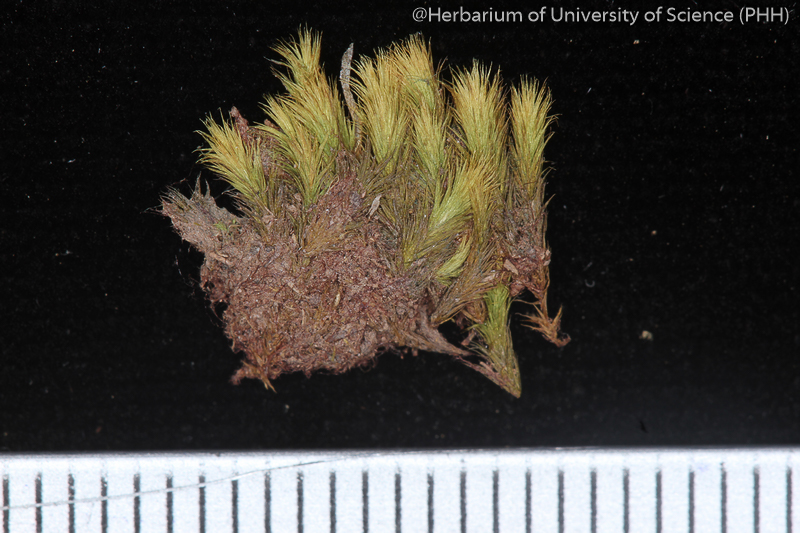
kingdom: Plantae
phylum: Bryophyta
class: Bryopsida
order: Bartramiales
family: Bartramiaceae
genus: Philonotis
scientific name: Philonotis thwaitesii
